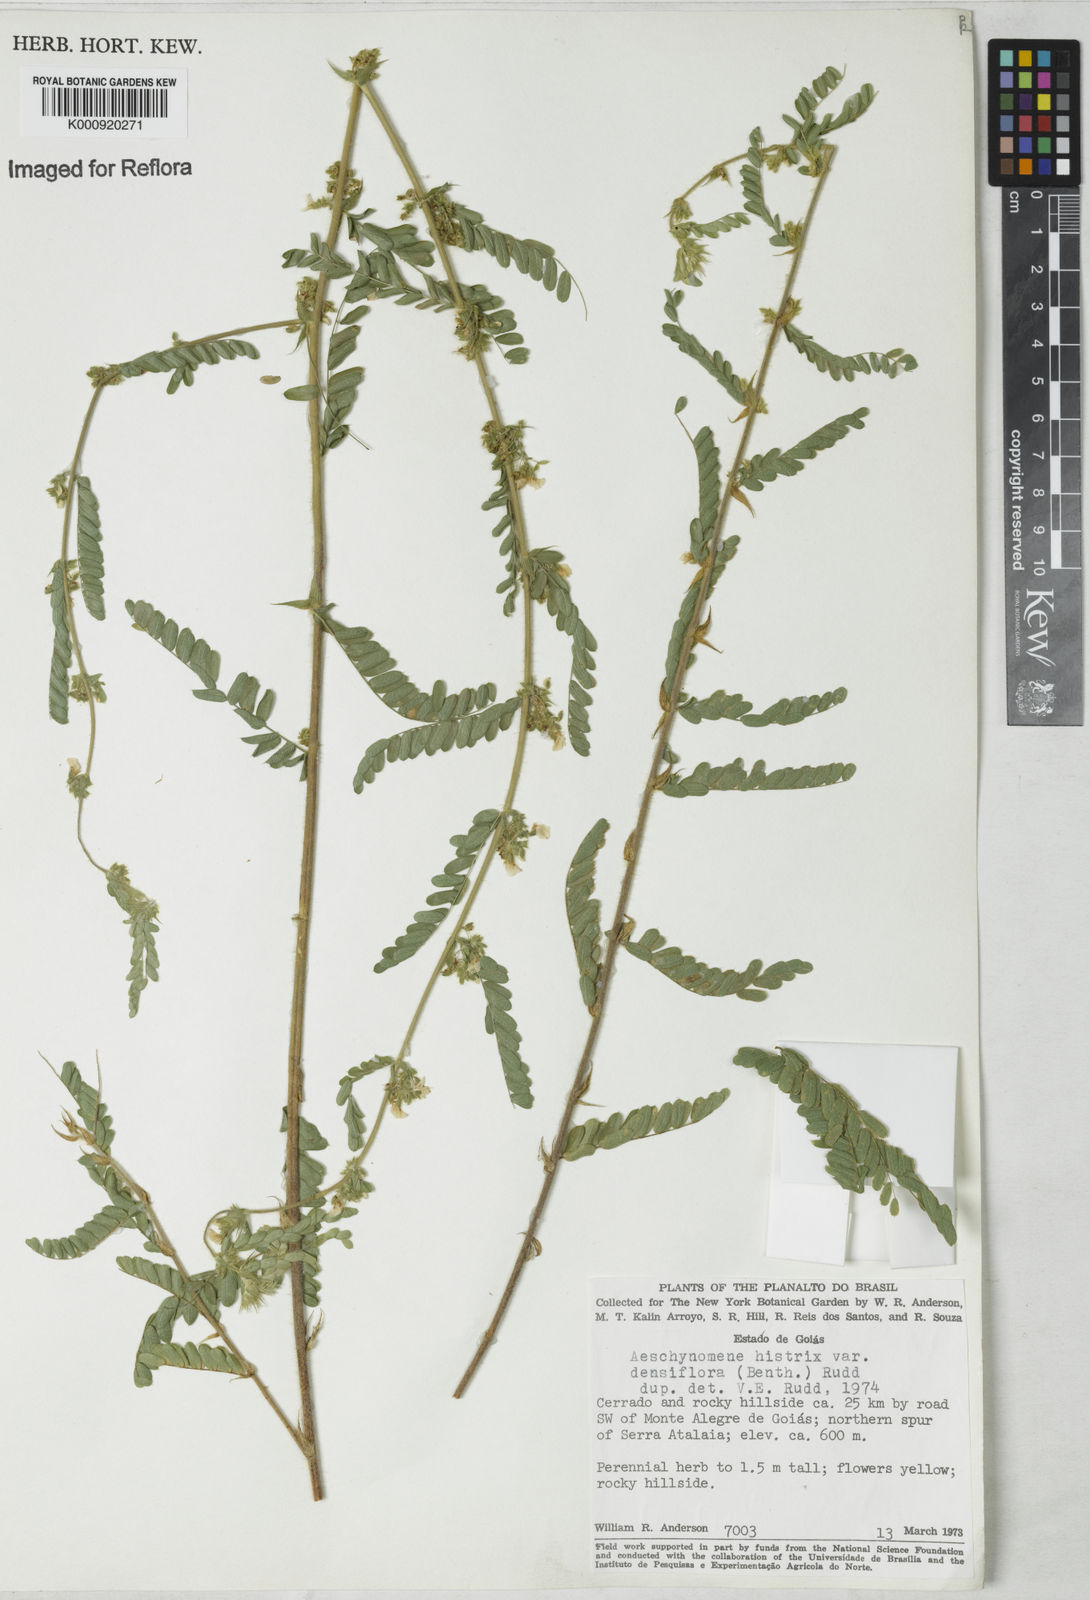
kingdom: Plantae
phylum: Tracheophyta
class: Magnoliopsida
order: Fabales
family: Fabaceae
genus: Ctenodon
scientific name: Ctenodon histrix
